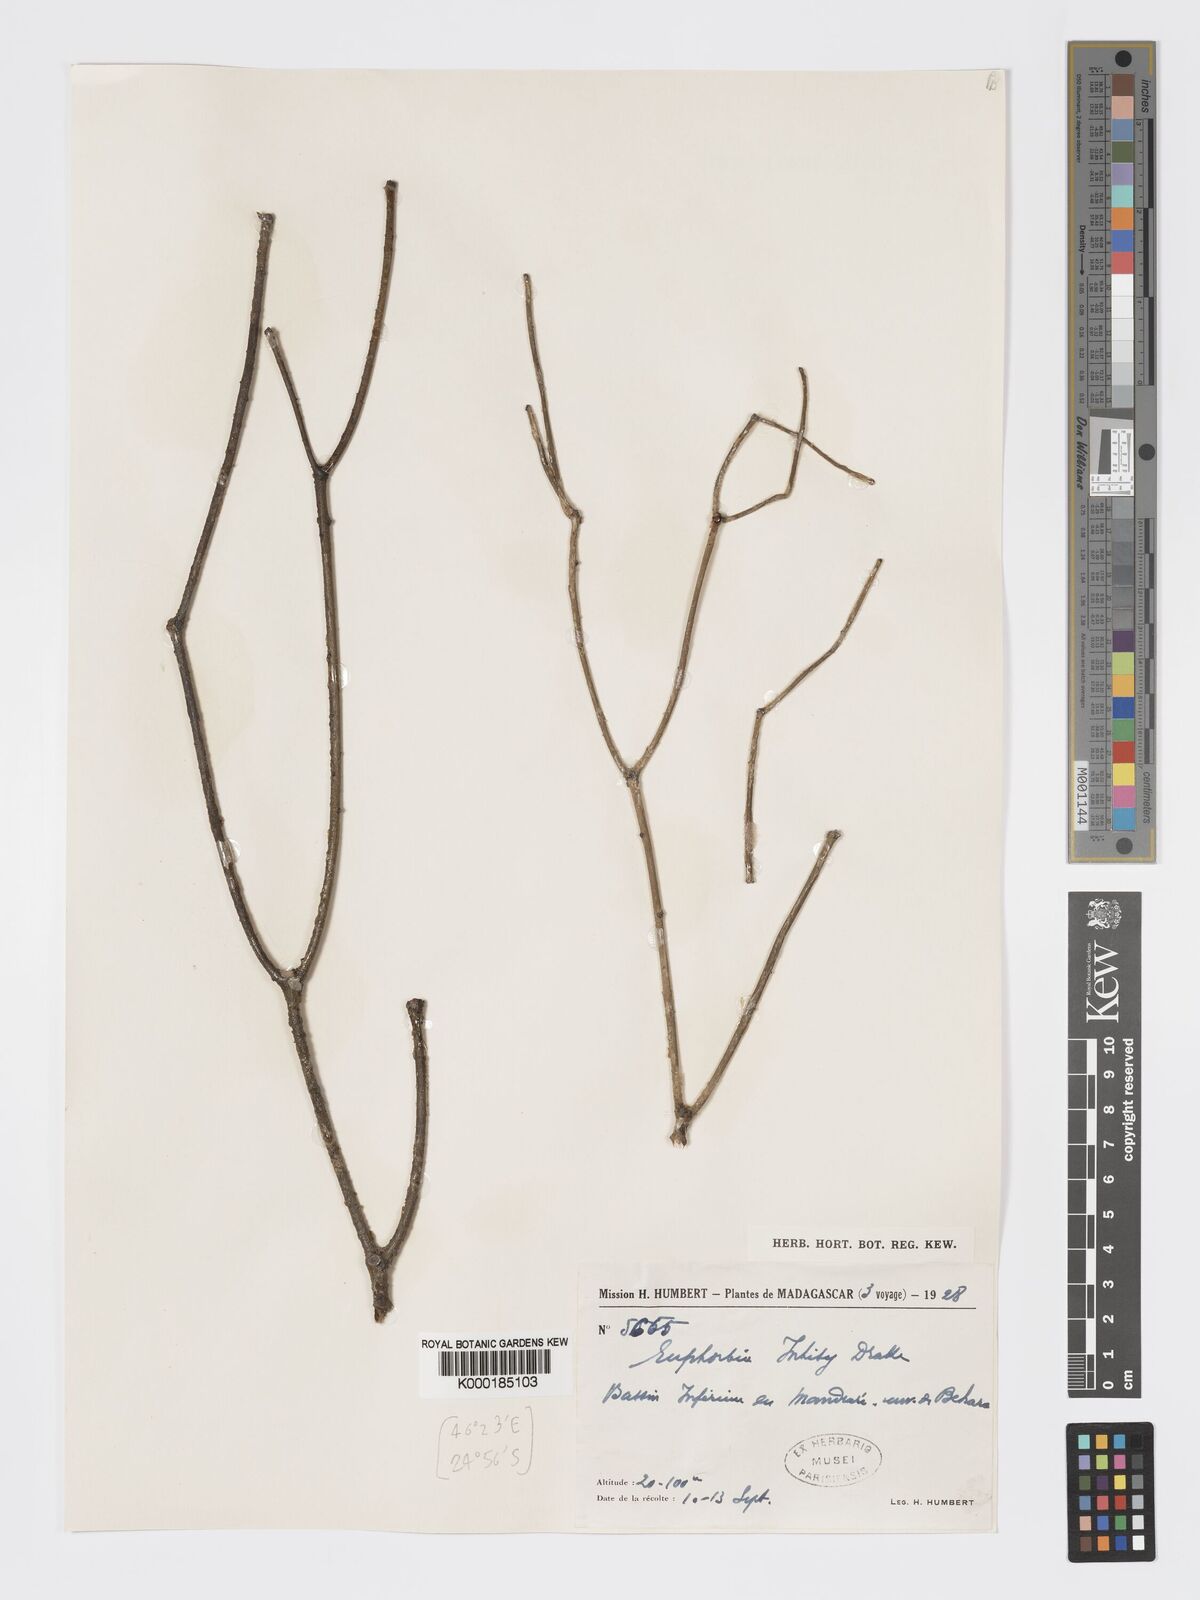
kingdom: Plantae
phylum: Tracheophyta
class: Magnoliopsida
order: Malpighiales
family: Euphorbiaceae
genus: Euphorbia
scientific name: Euphorbia intisy
